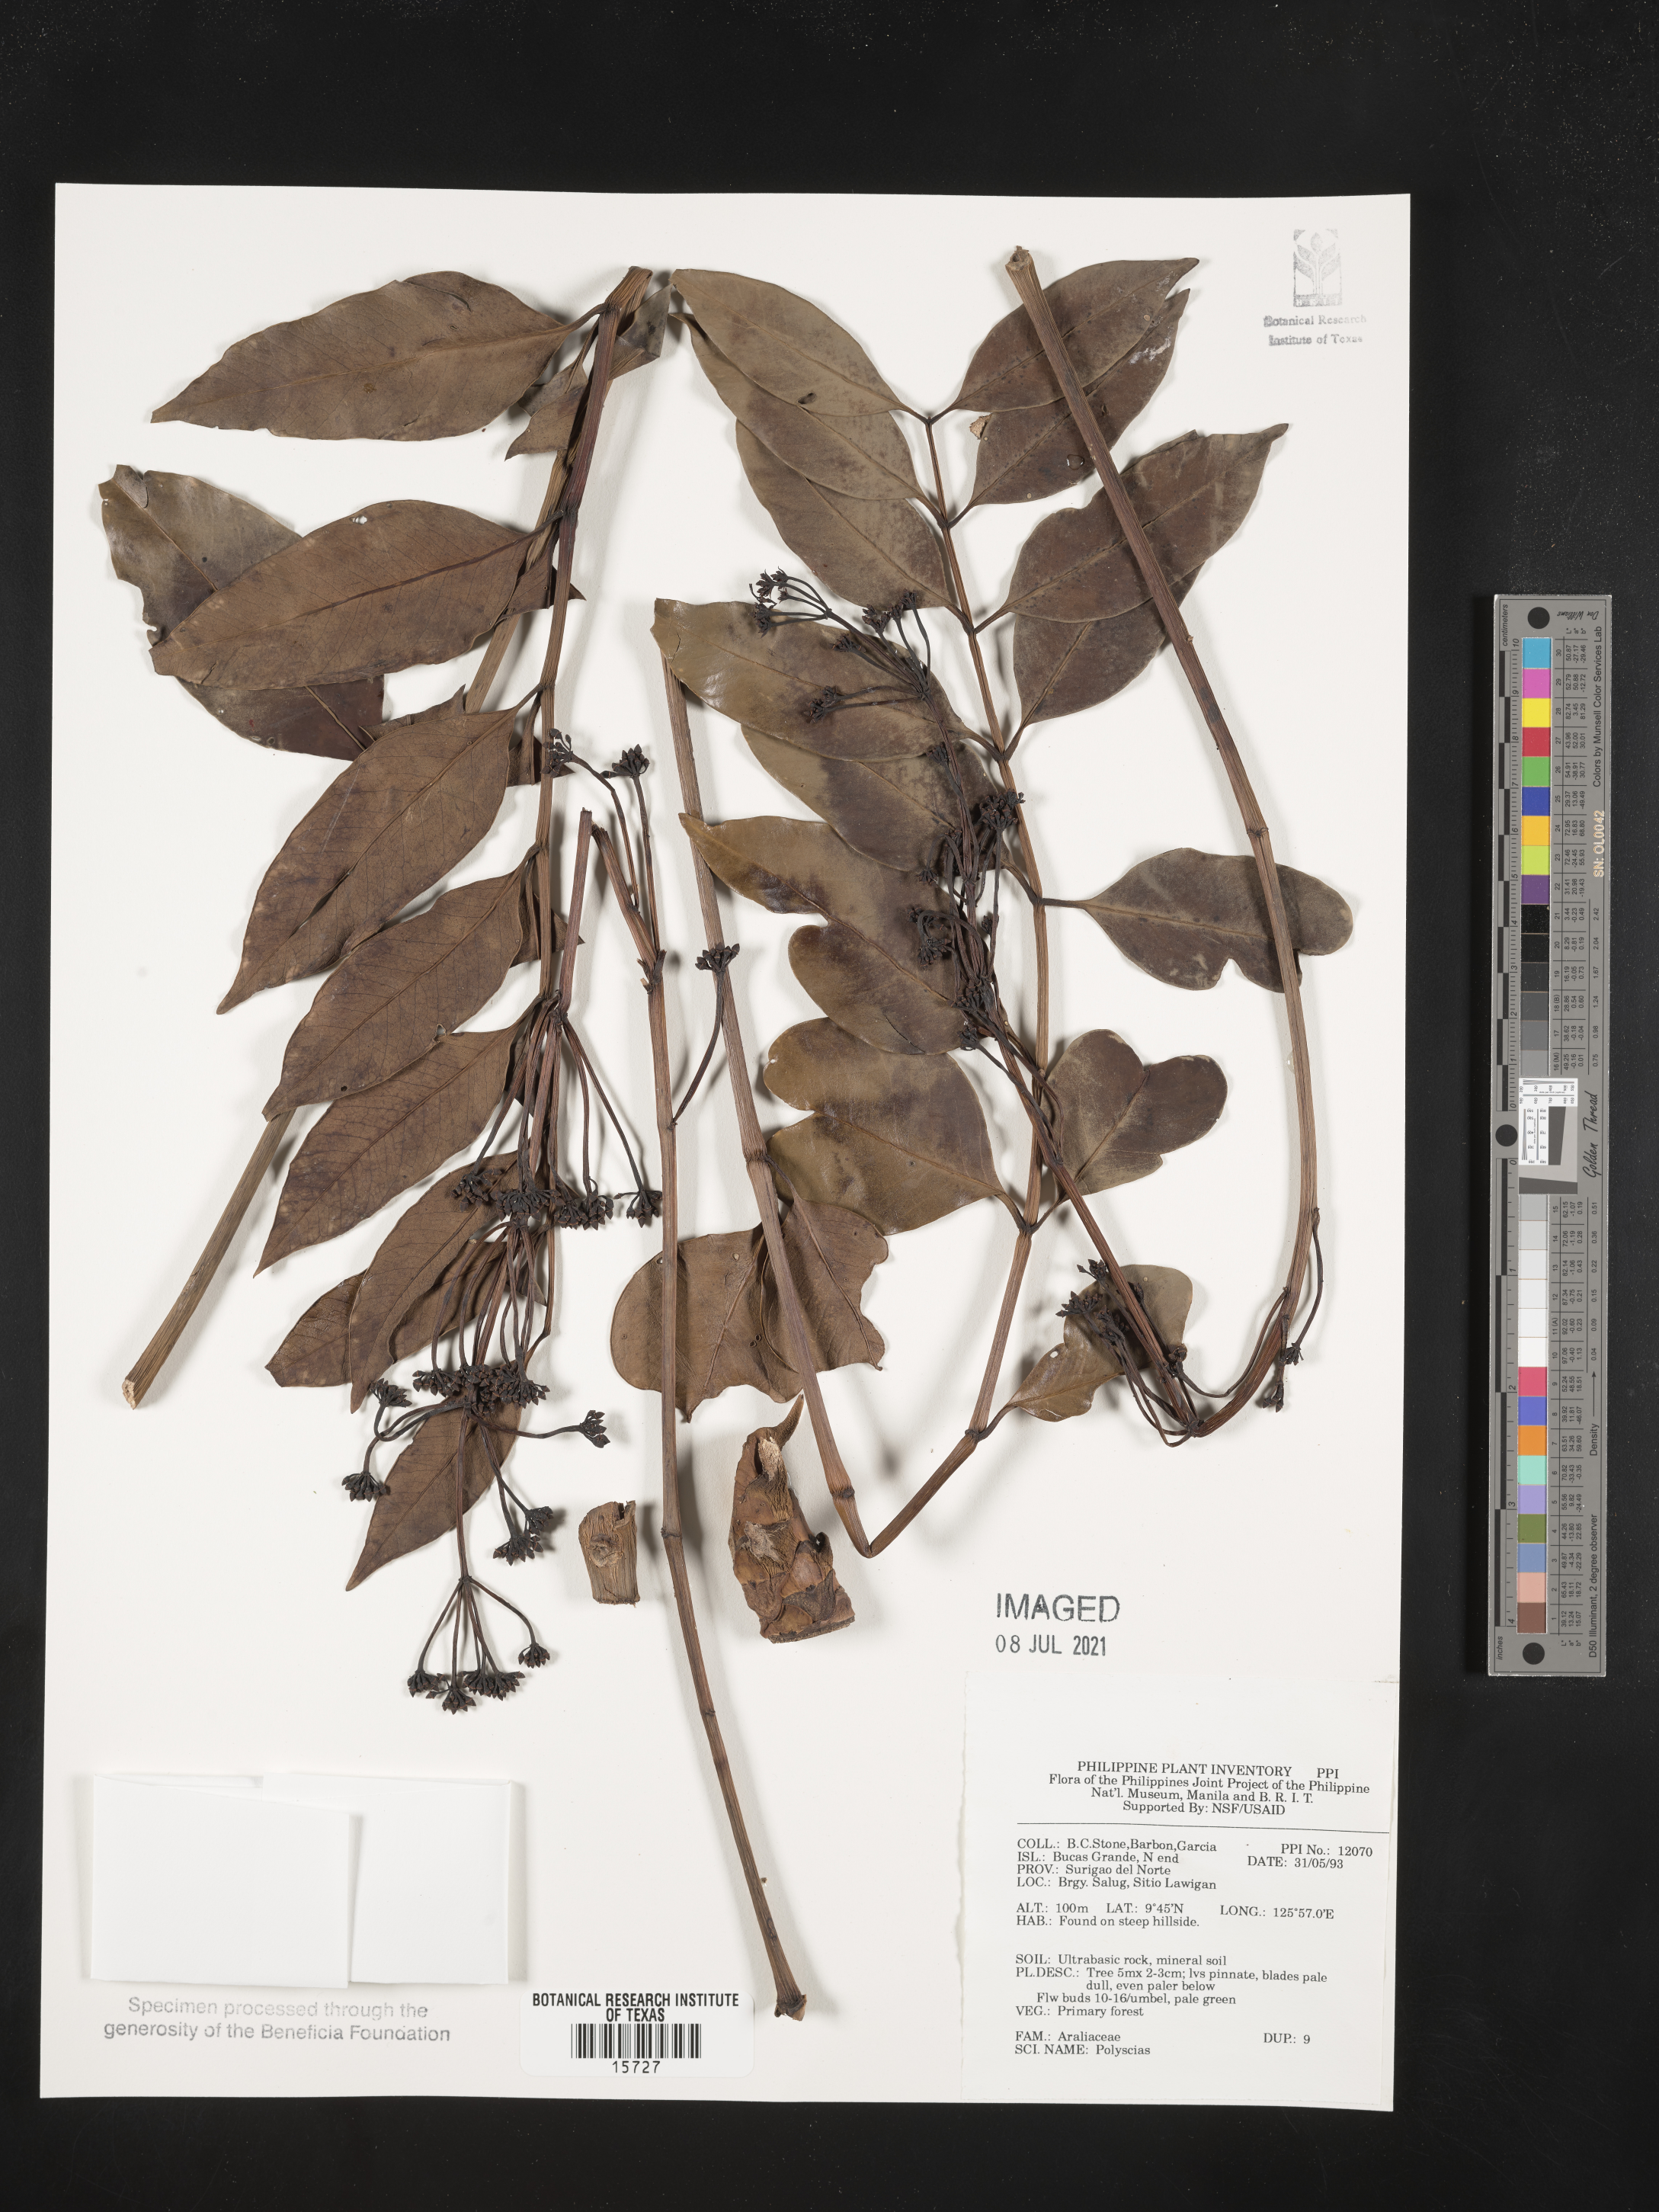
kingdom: Plantae
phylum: Tracheophyta
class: Magnoliopsida
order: Apiales
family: Araliaceae
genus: Polyscias
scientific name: Polyscias
